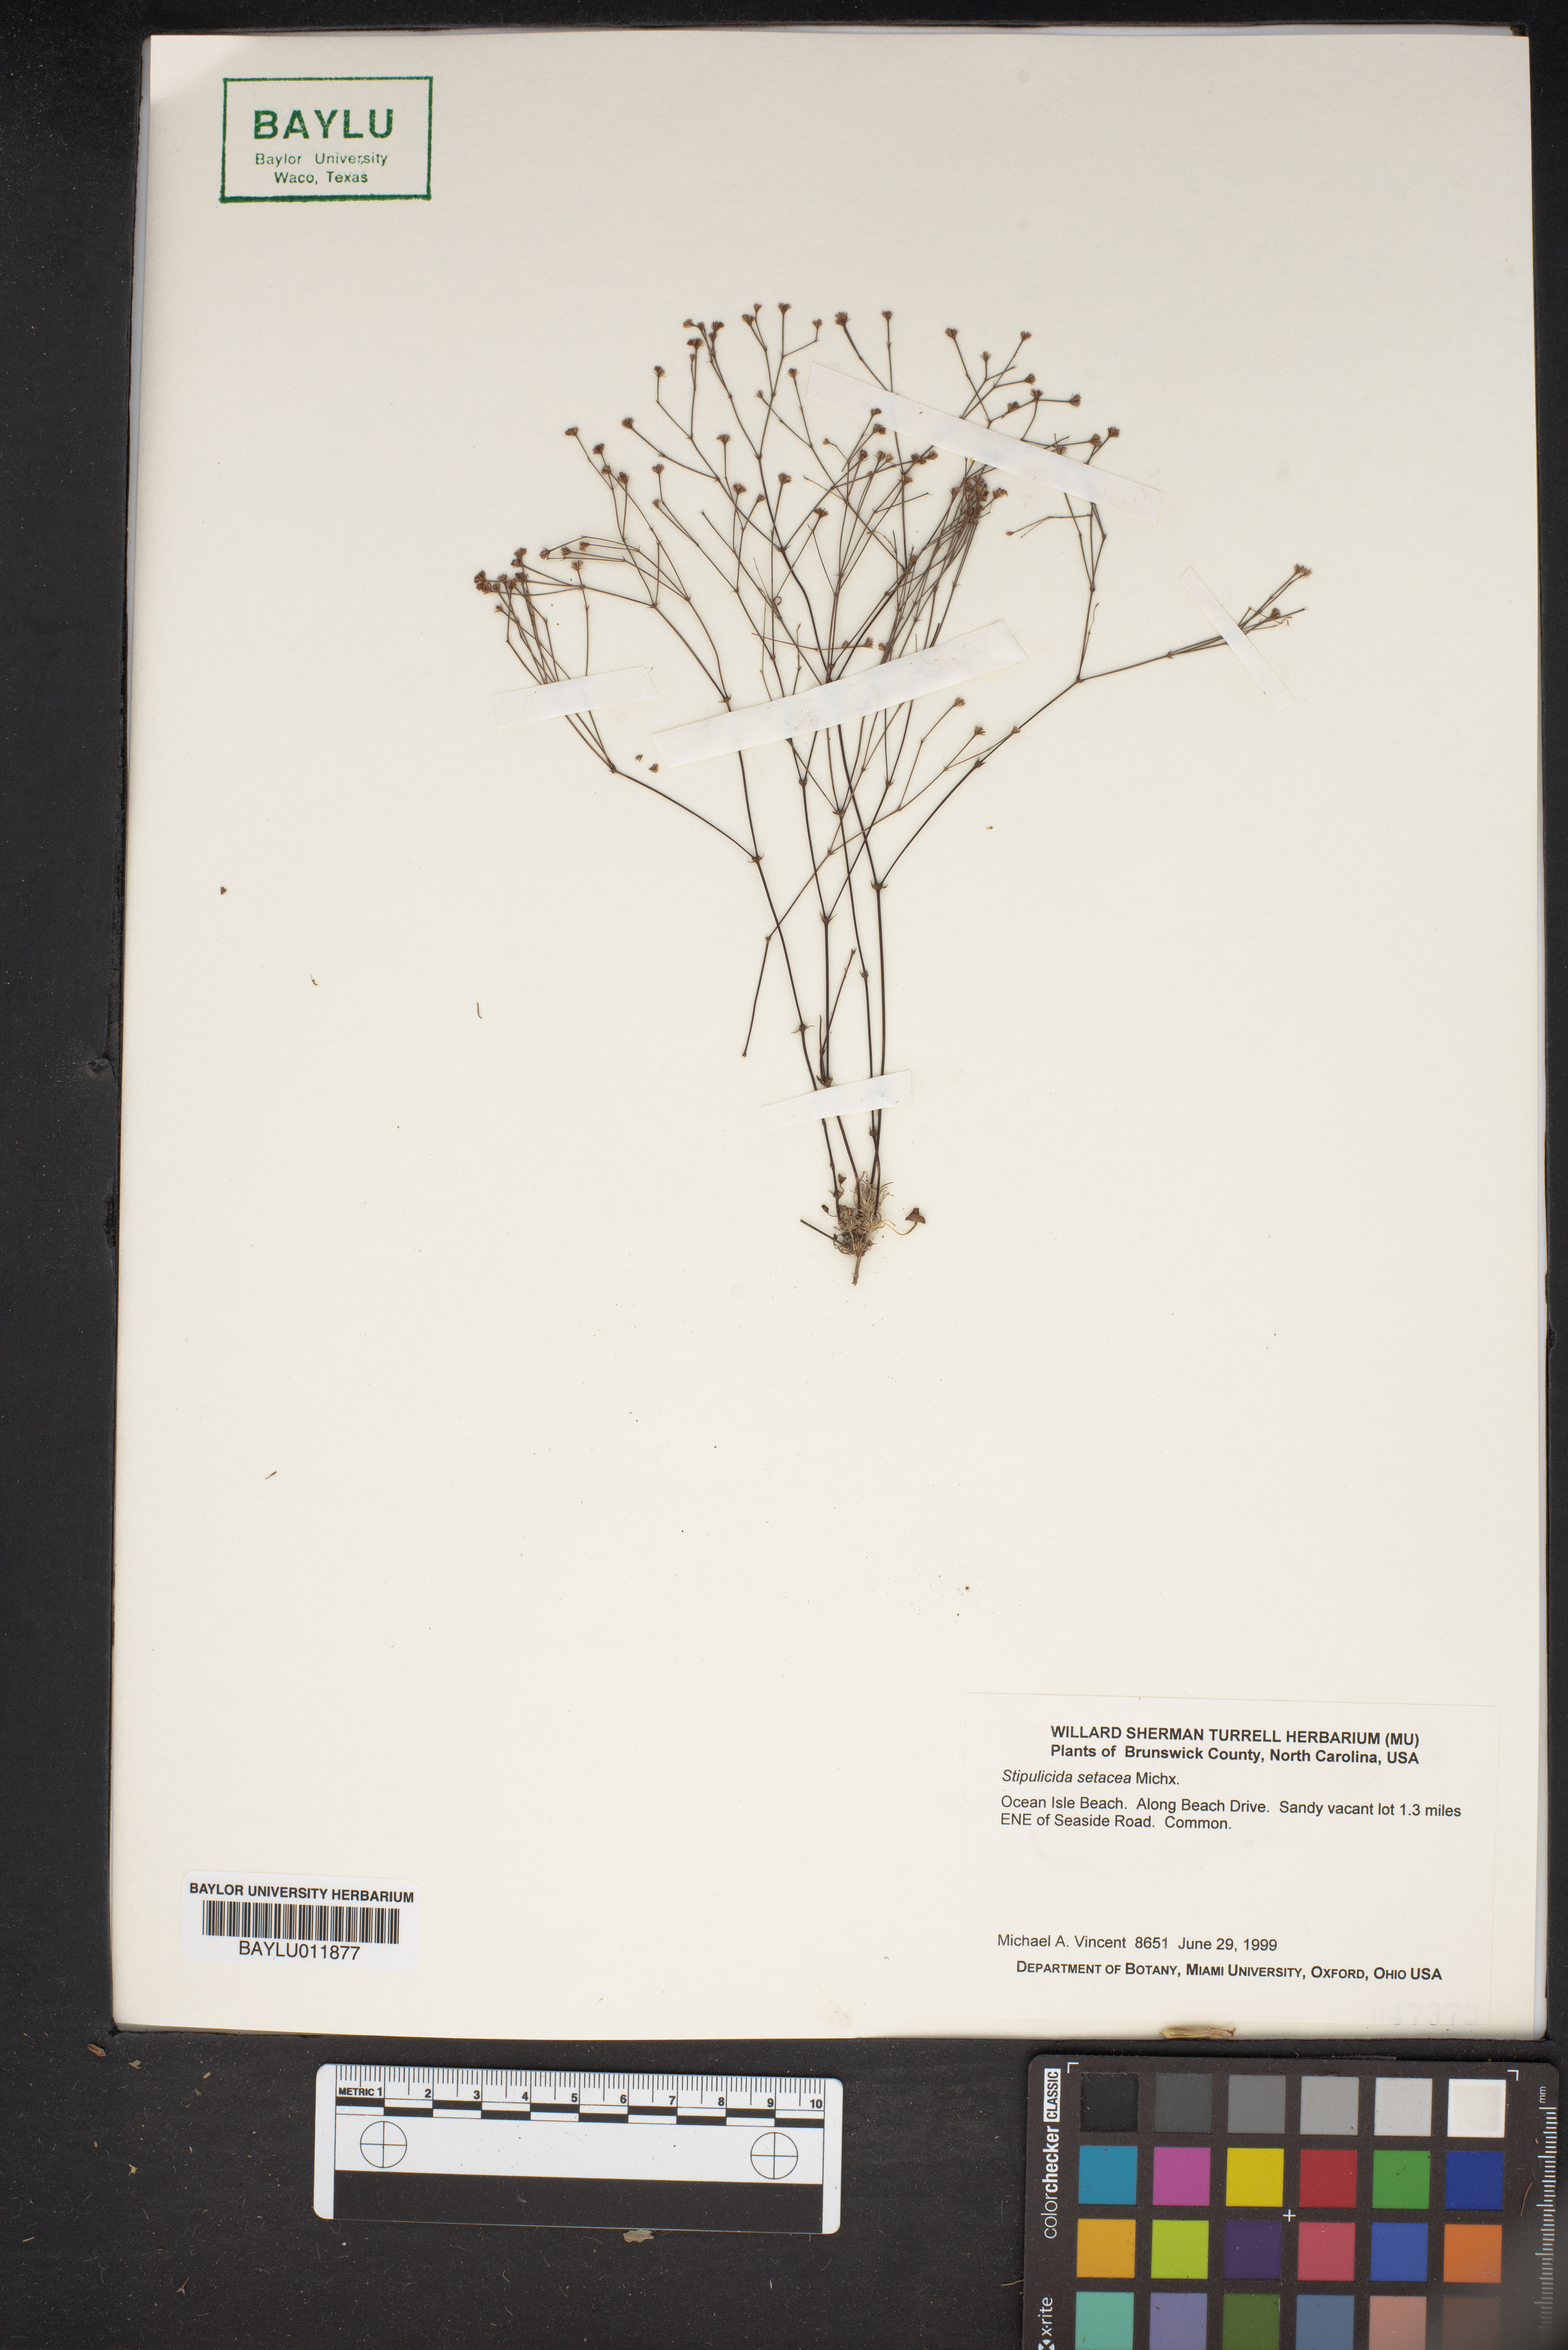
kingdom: Plantae
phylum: Tracheophyta
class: Magnoliopsida
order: Caryophyllales
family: Caryophyllaceae
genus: Stipulicida
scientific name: Stipulicida setacea
